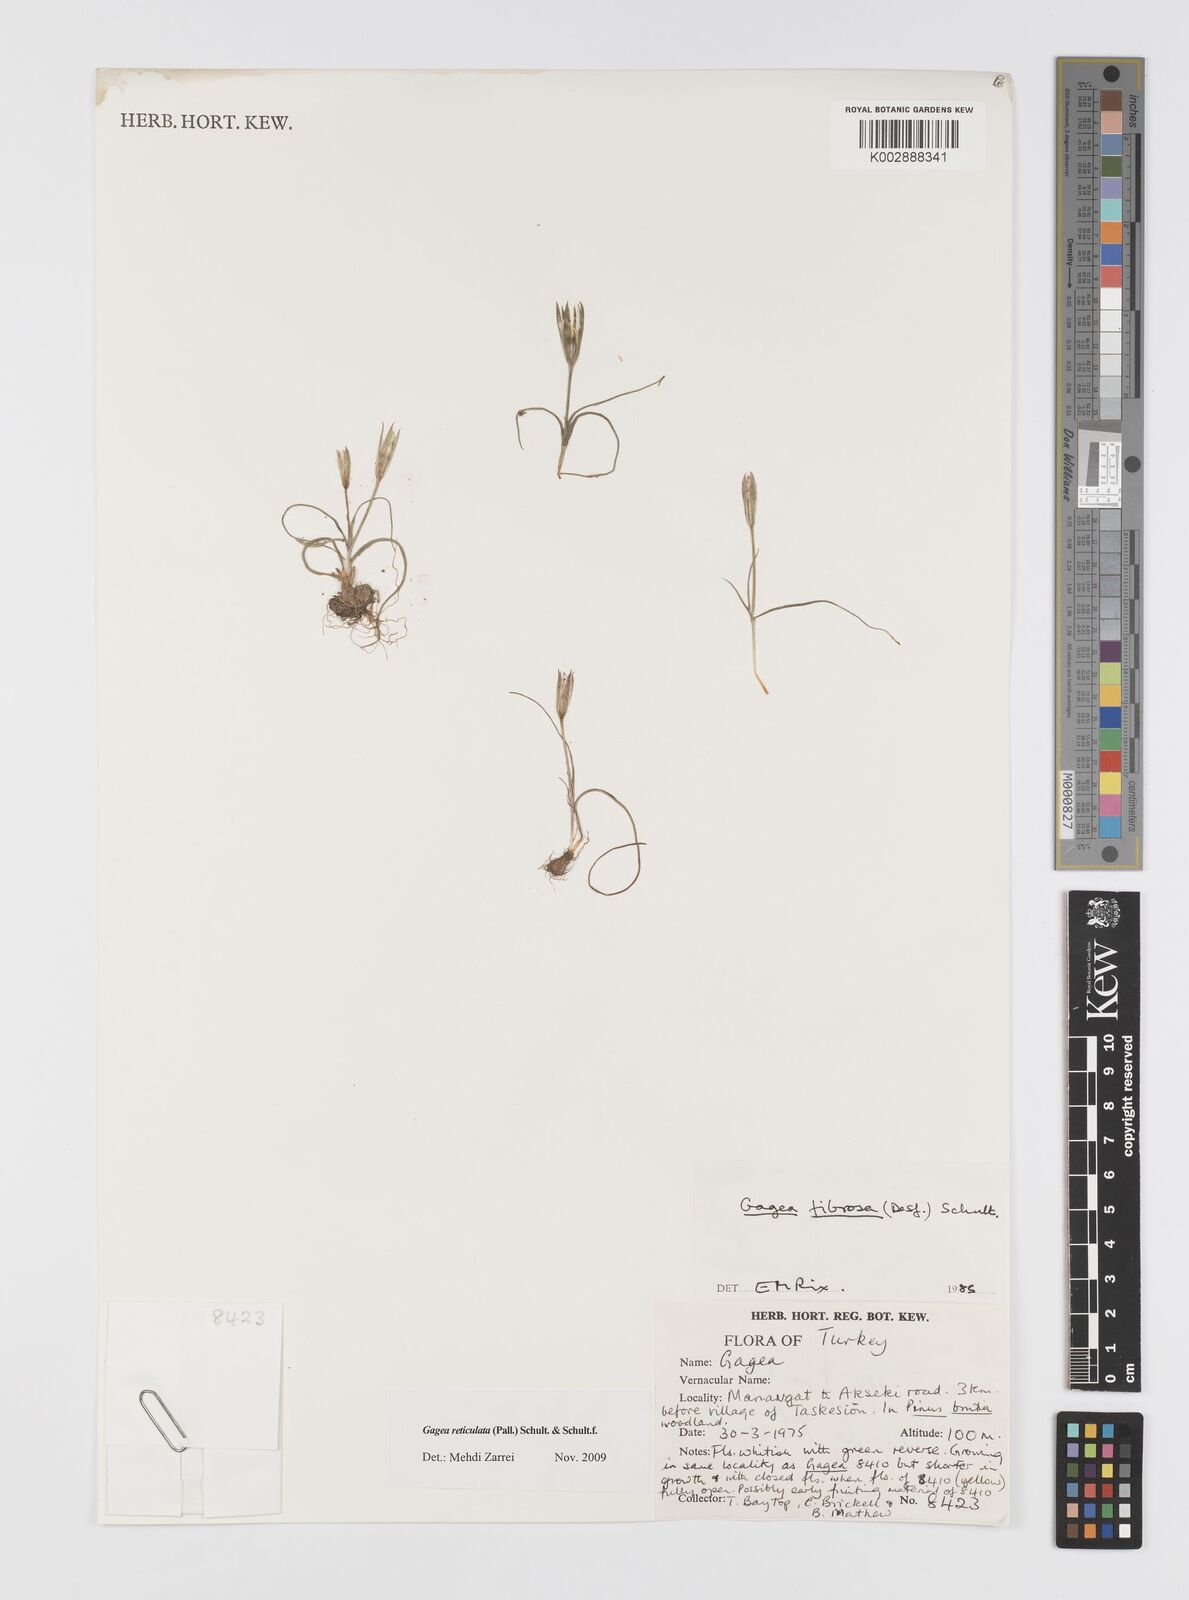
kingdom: Plantae
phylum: Tracheophyta
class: Liliopsida
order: Liliales
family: Liliaceae
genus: Gagea
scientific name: Gagea fibrosa
